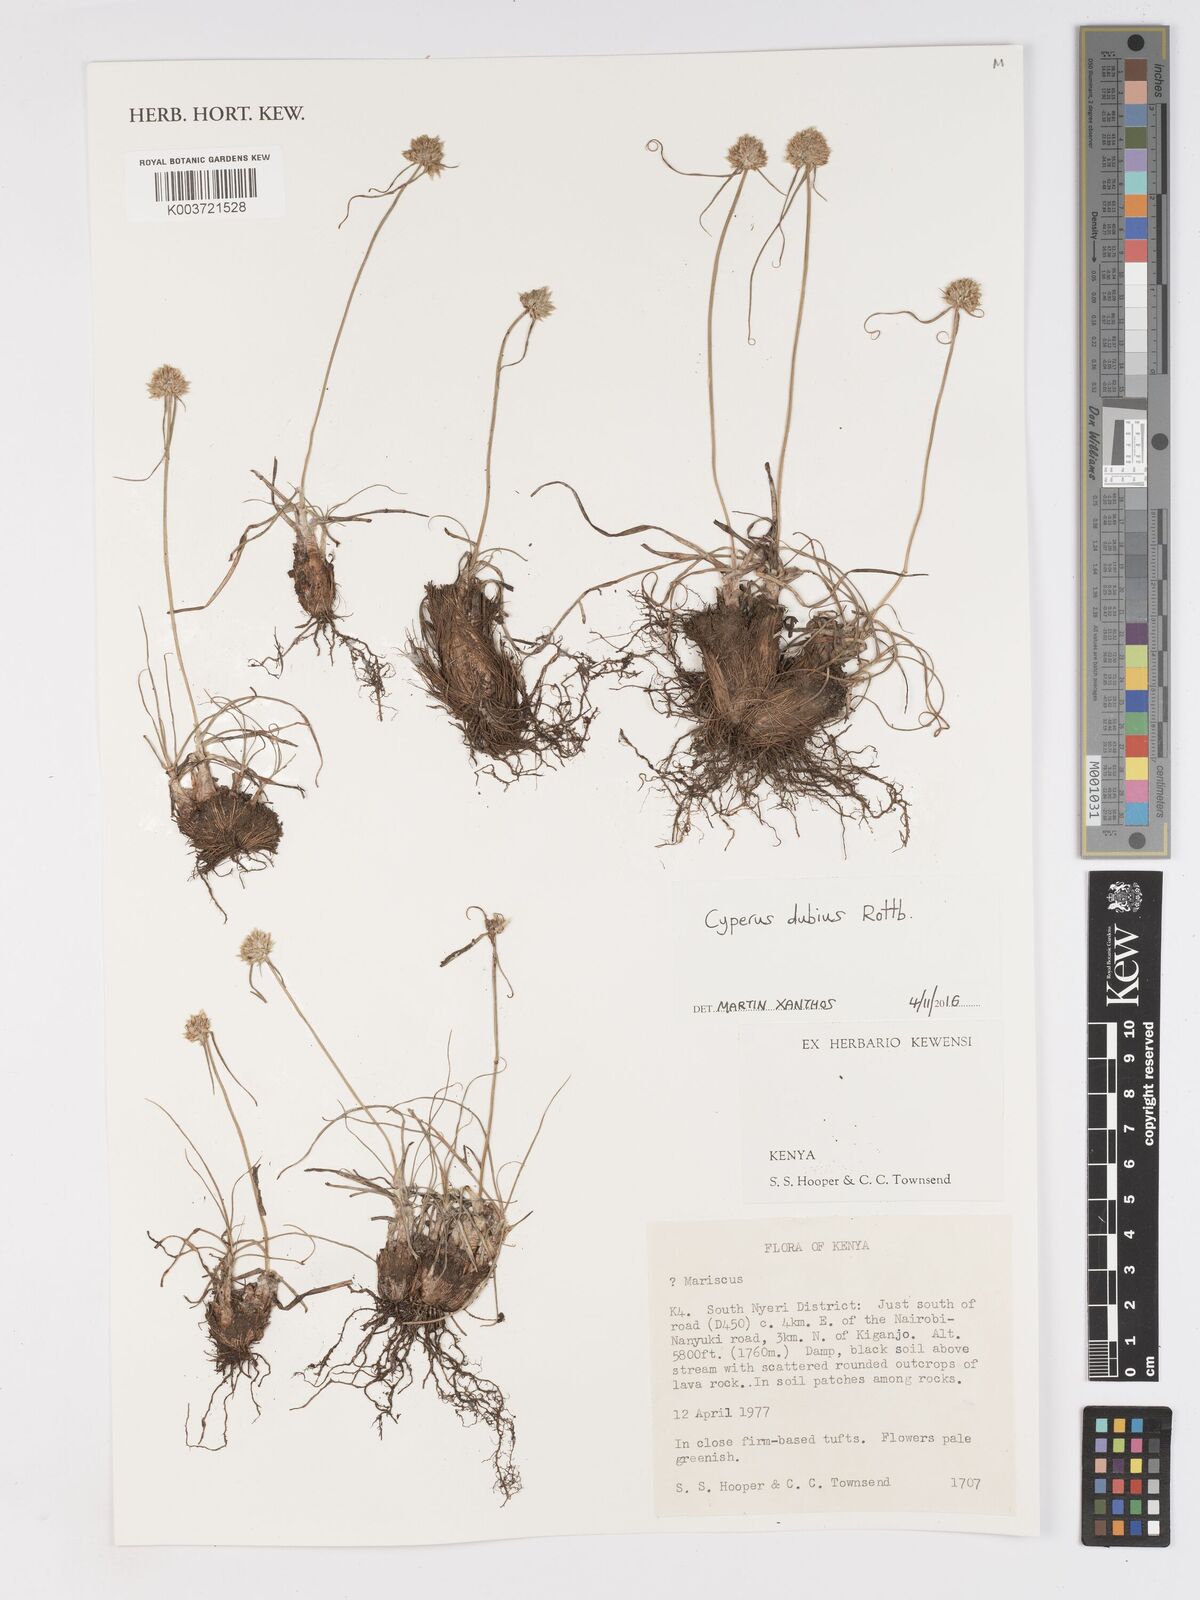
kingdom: Plantae
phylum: Tracheophyta
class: Liliopsida
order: Poales
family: Cyperaceae
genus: Cyperus
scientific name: Cyperus dubius
